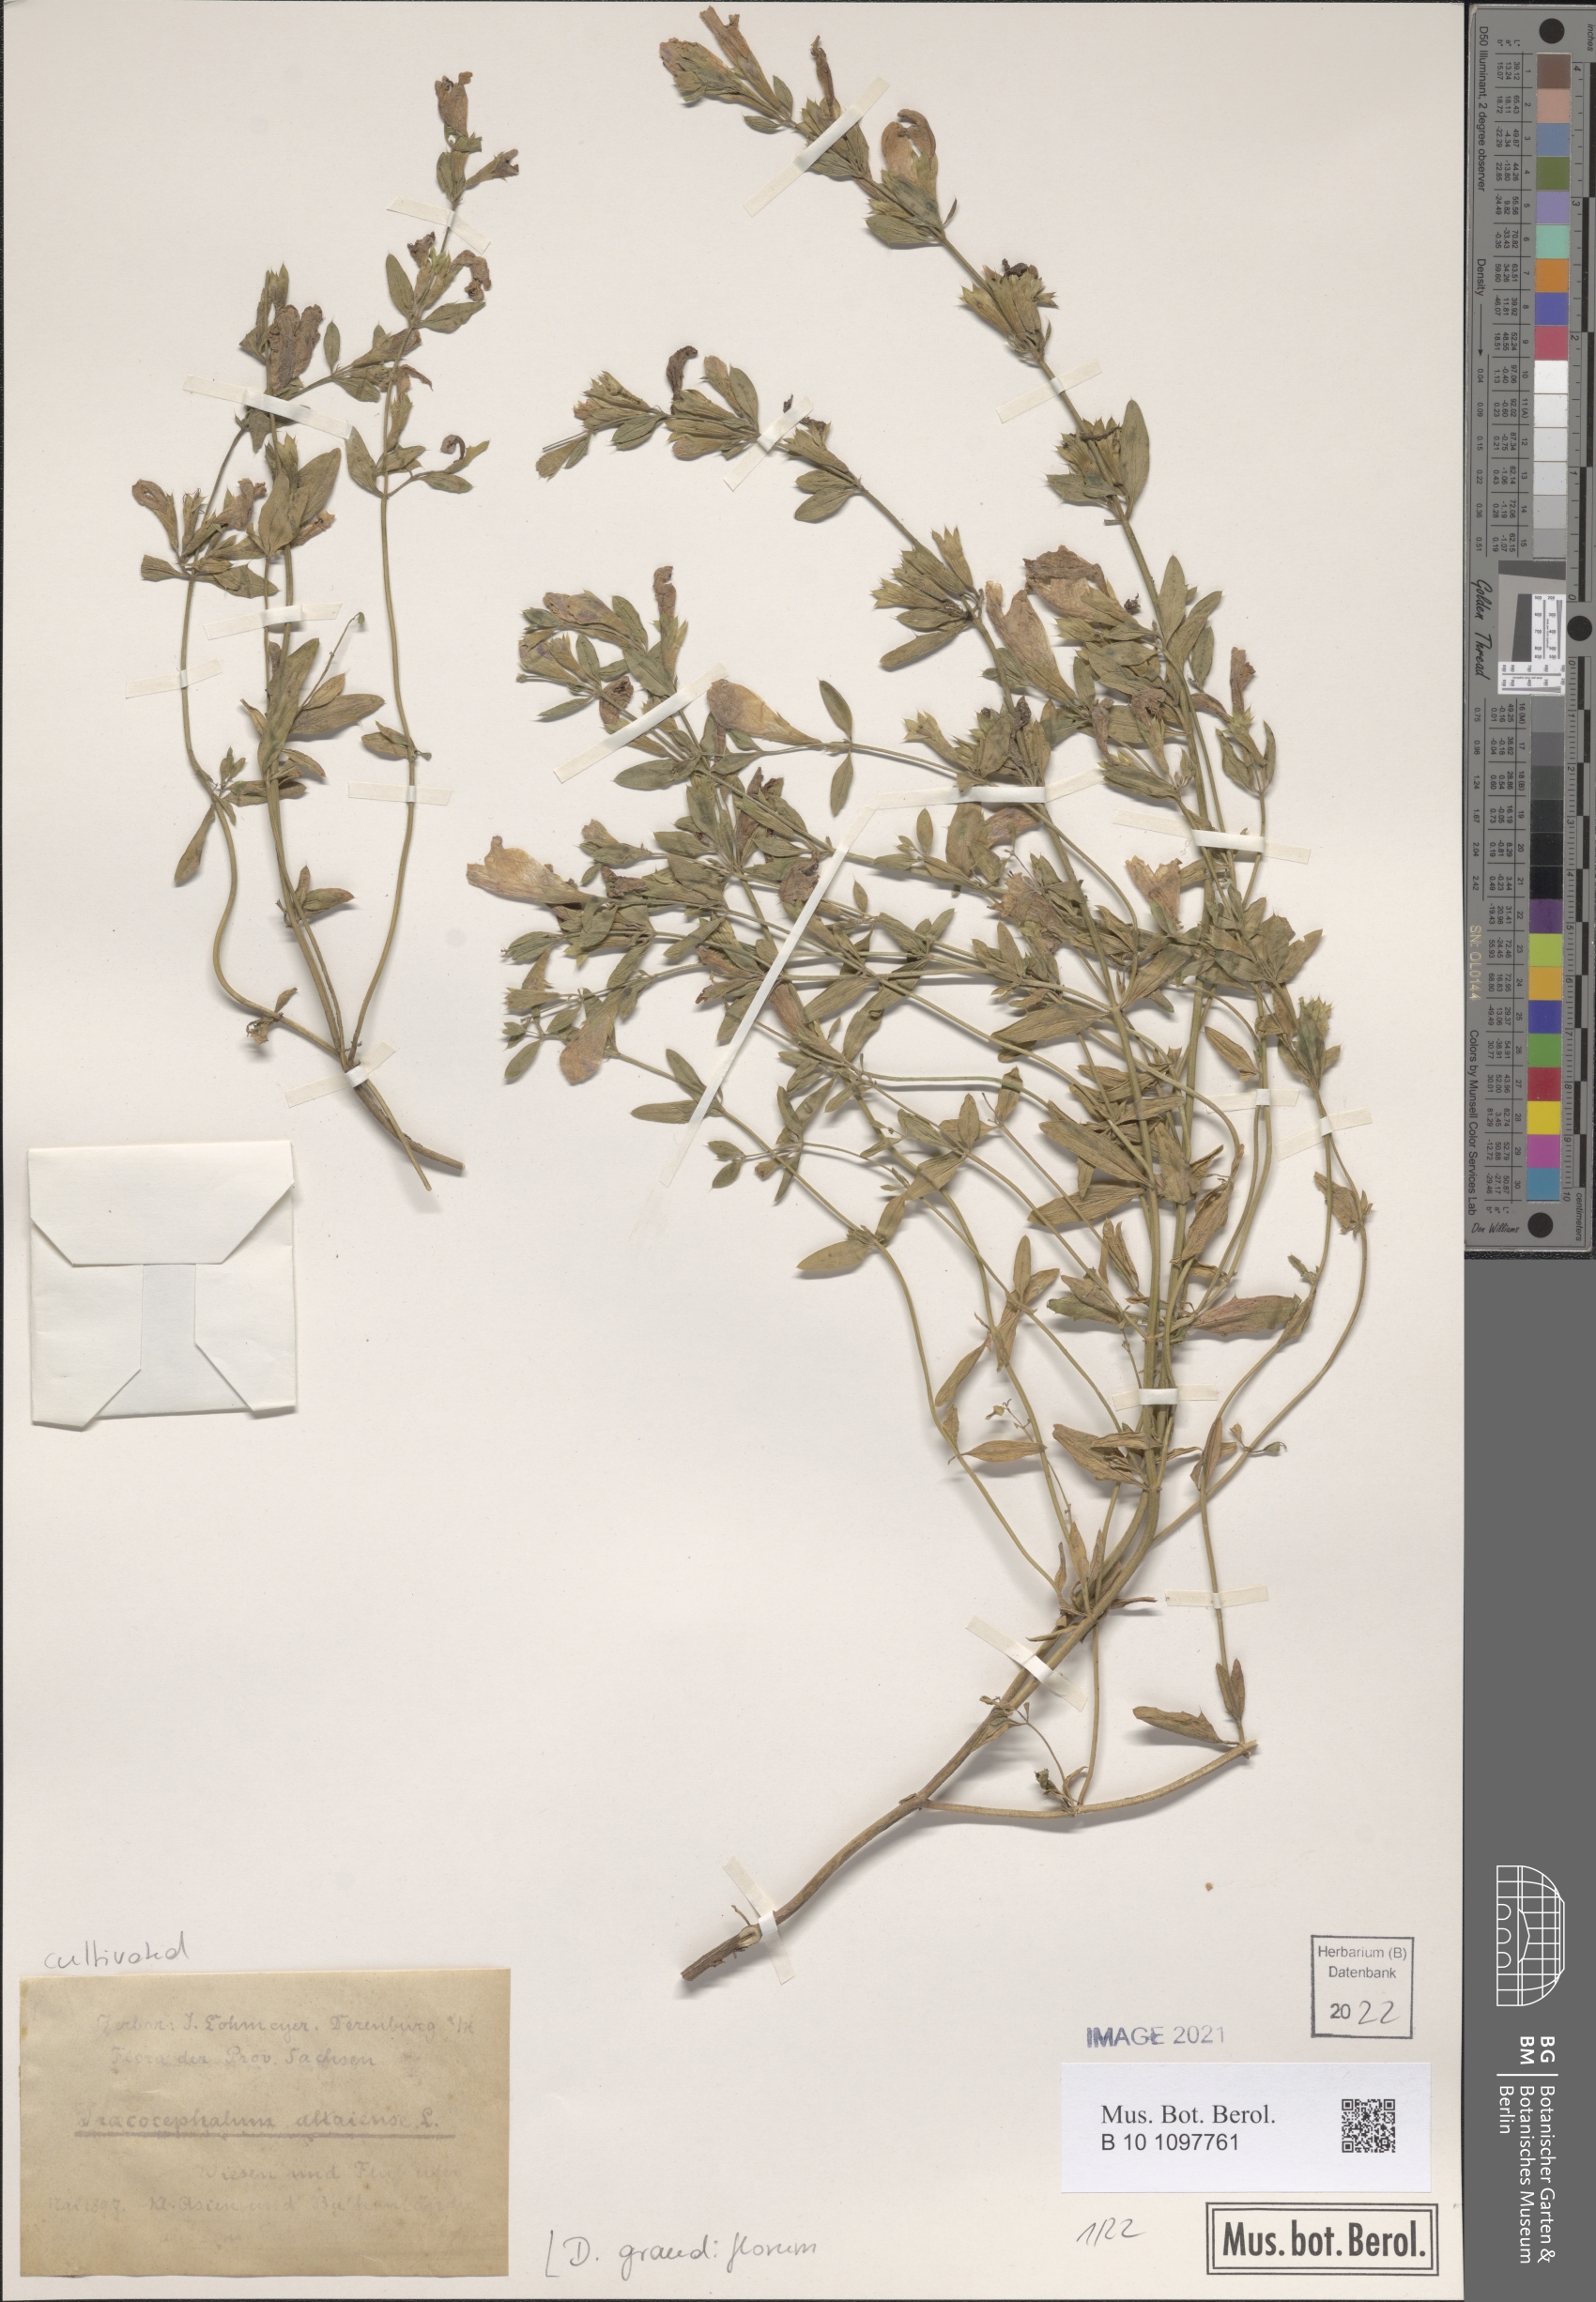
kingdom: Plantae
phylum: Tracheophyta
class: Magnoliopsida
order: Lamiales
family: Lamiaceae
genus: Dracocephalum
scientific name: Dracocephalum grandiflorum
